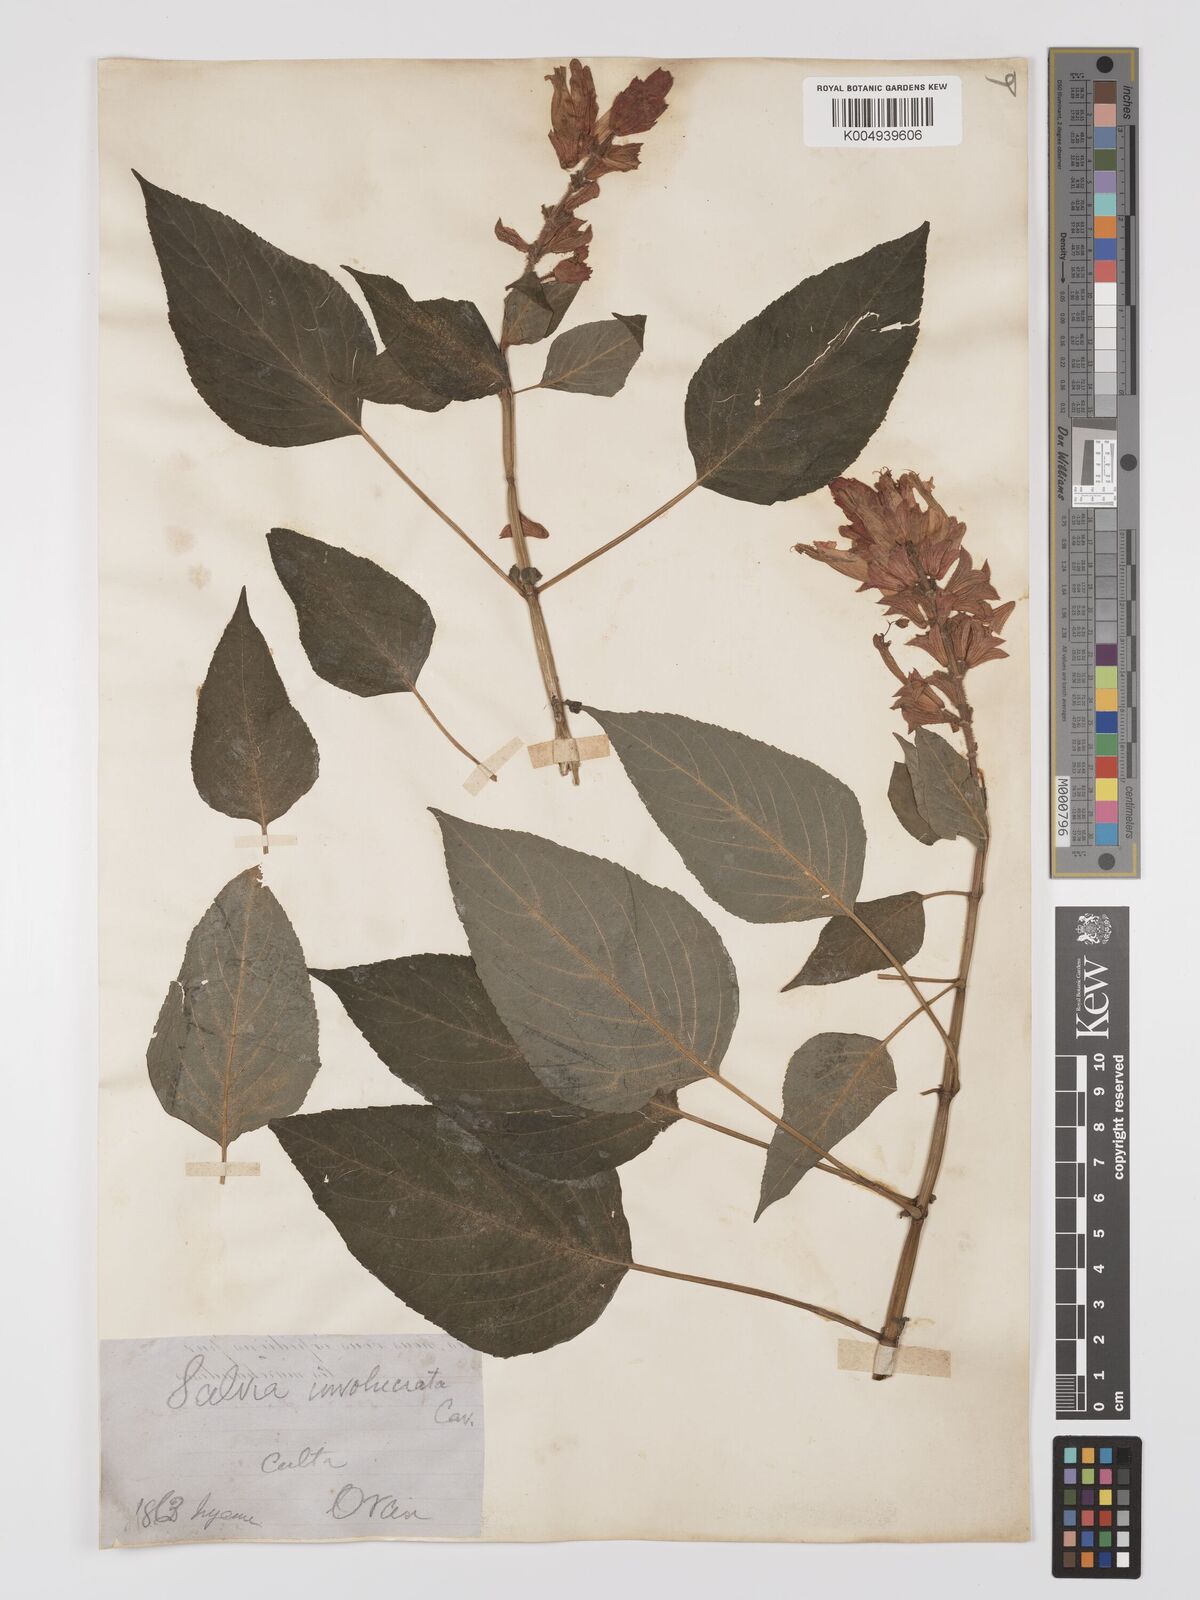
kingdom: Plantae
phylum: Tracheophyta
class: Magnoliopsida
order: Lamiales
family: Lamiaceae
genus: Salvia
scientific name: Salvia wagneriana
